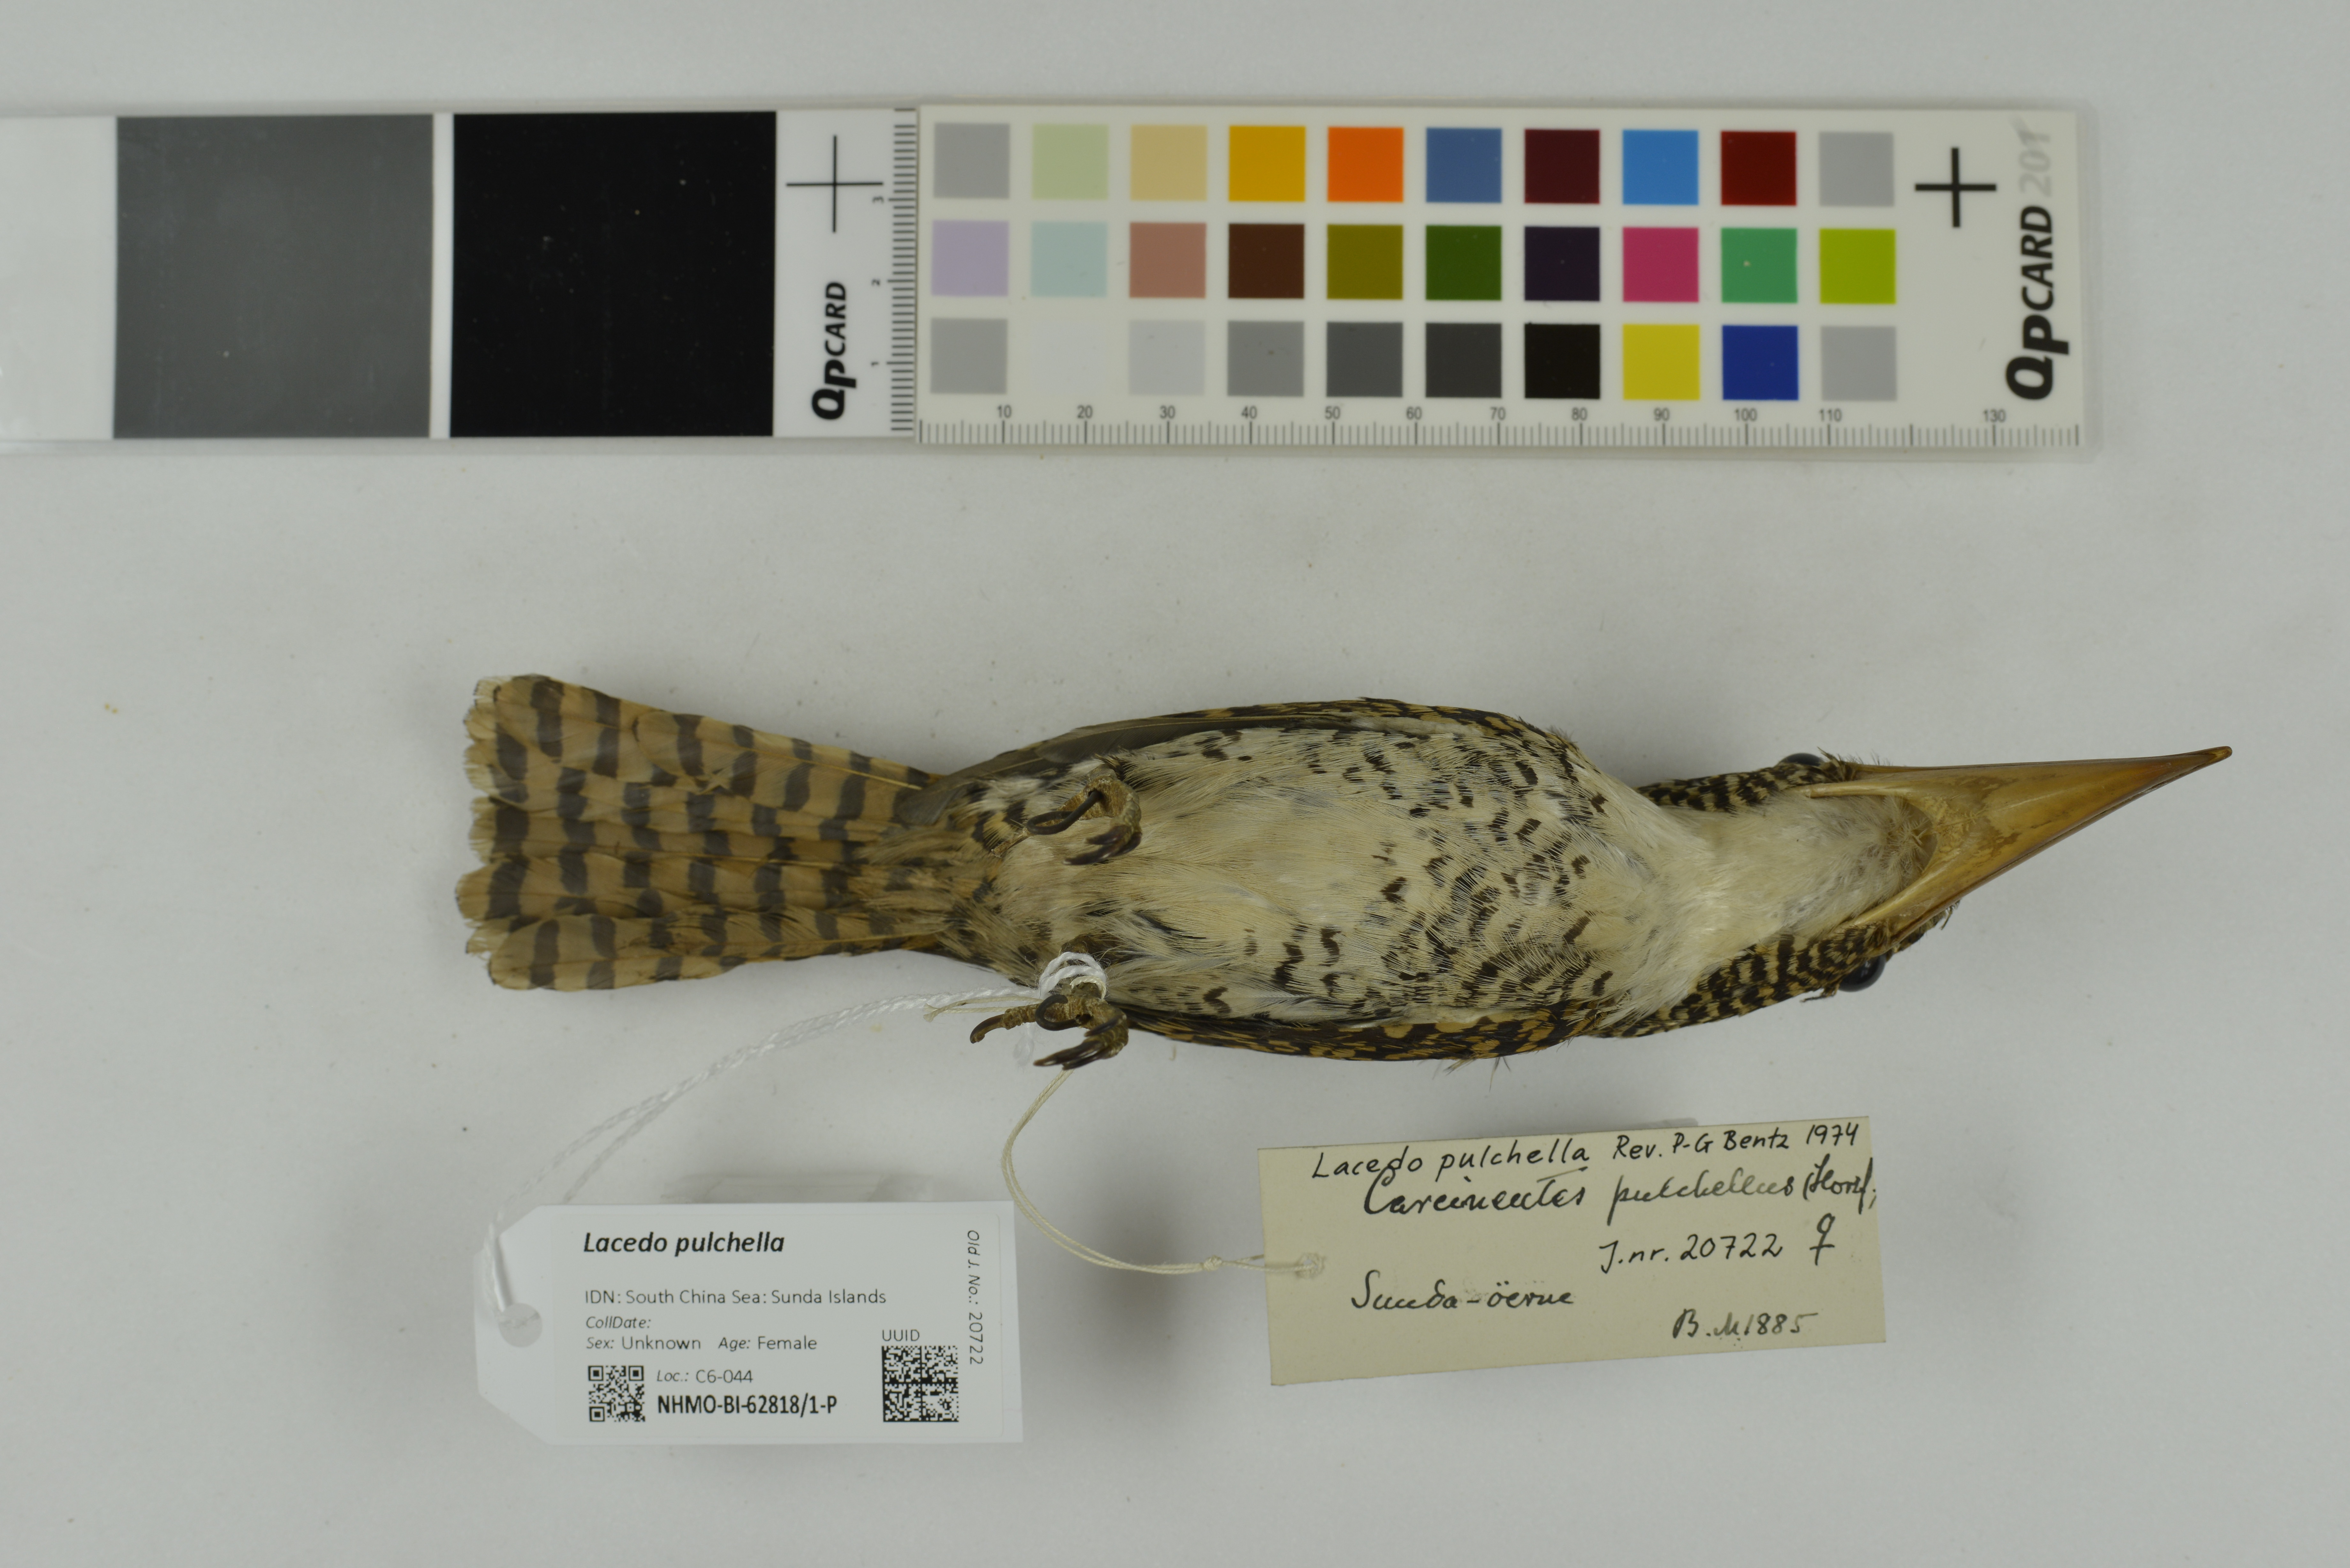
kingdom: Animalia
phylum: Chordata
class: Aves
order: Coraciiformes
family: Alcedinidae
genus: Lacedo
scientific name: Lacedo pulchella
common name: Banded kingfisher
